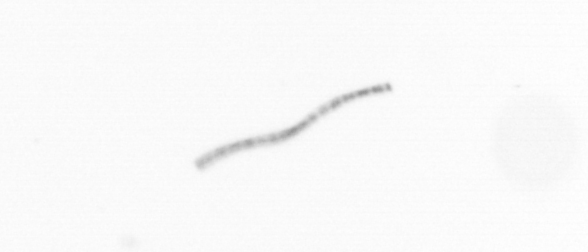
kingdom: Chromista
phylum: Ochrophyta
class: Bacillariophyceae
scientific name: Bacillariophyceae
